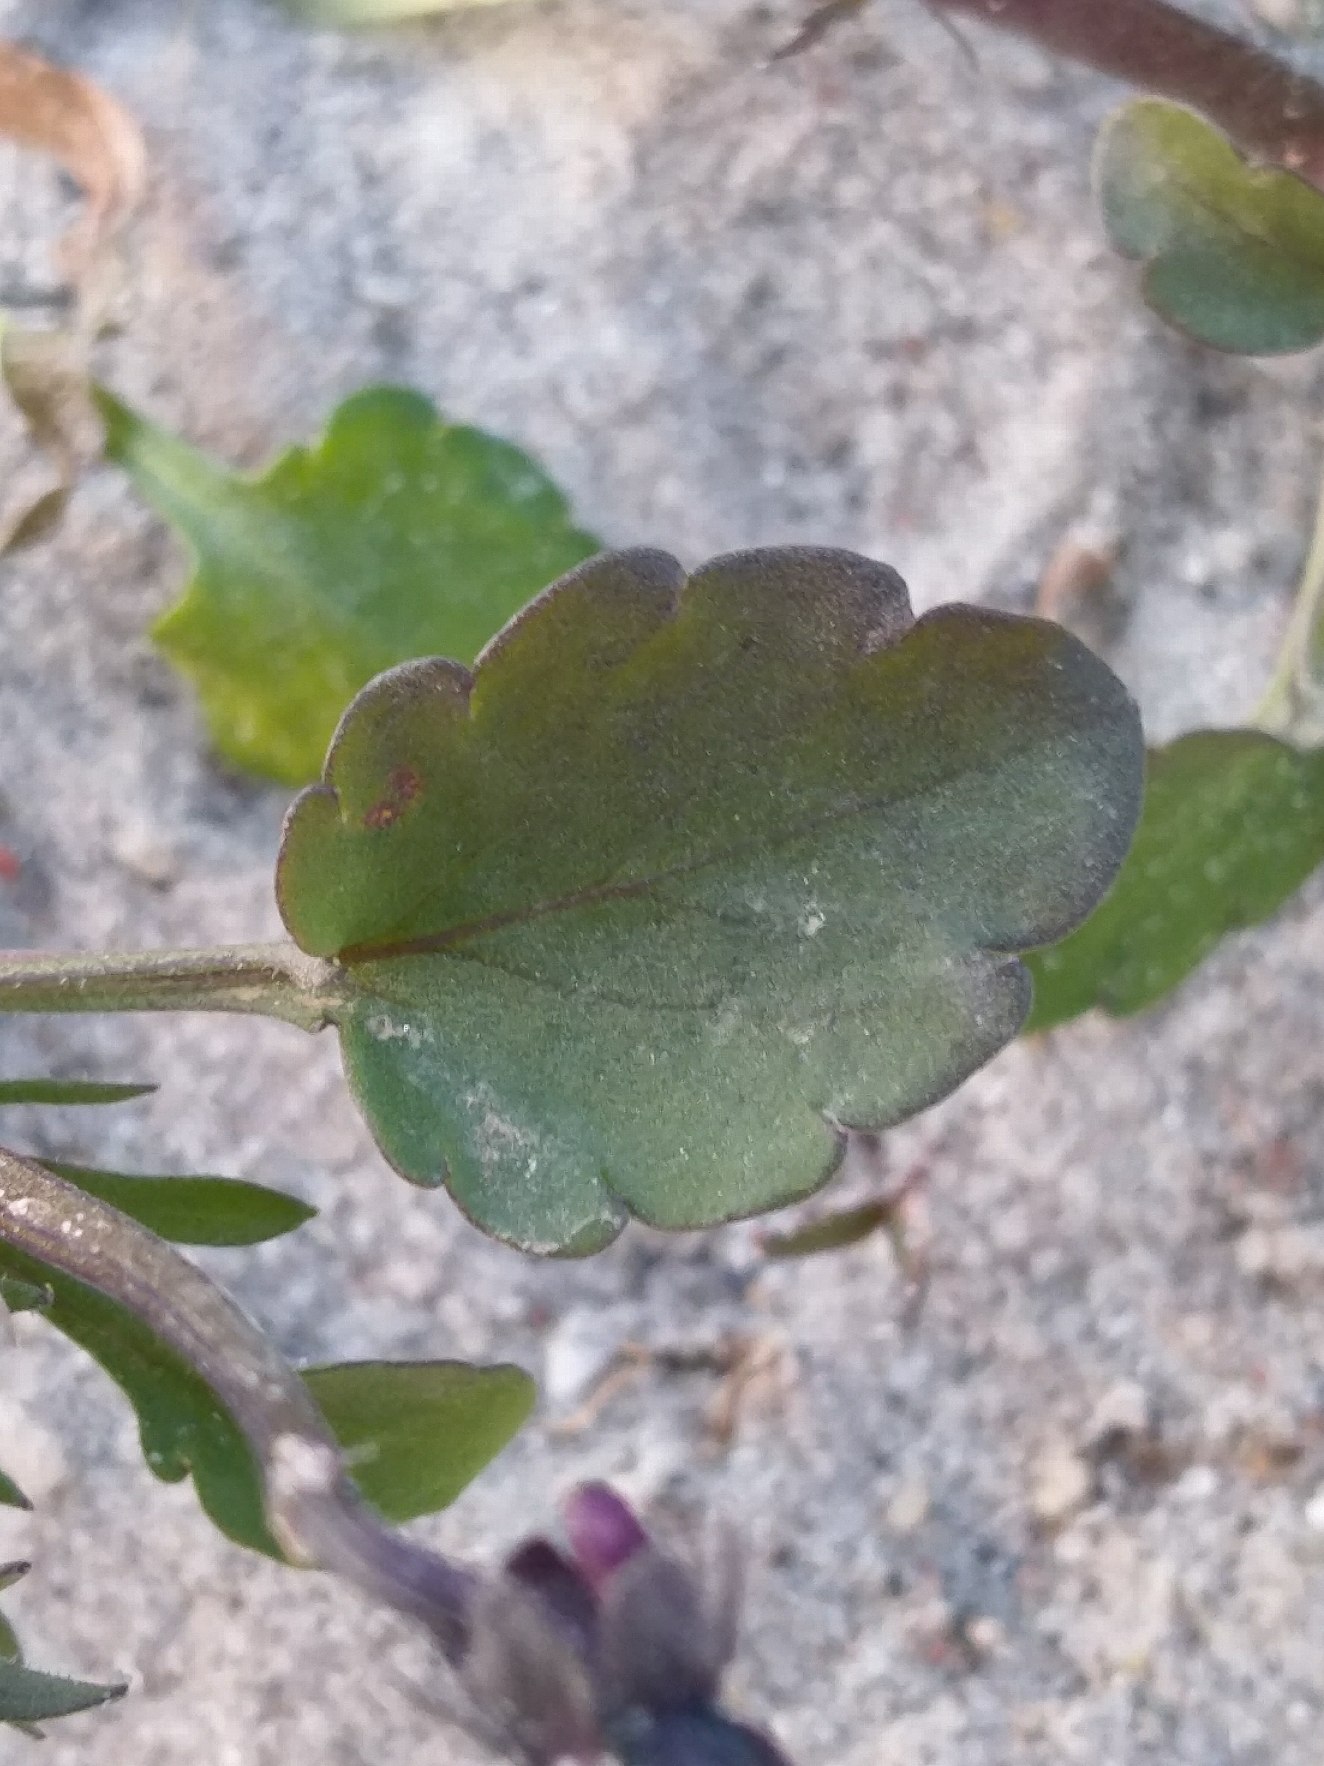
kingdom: Plantae
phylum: Tracheophyta
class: Magnoliopsida
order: Malpighiales
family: Violaceae
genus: Viola
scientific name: Viola arvensis
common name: Ager-stedmoderblomst
